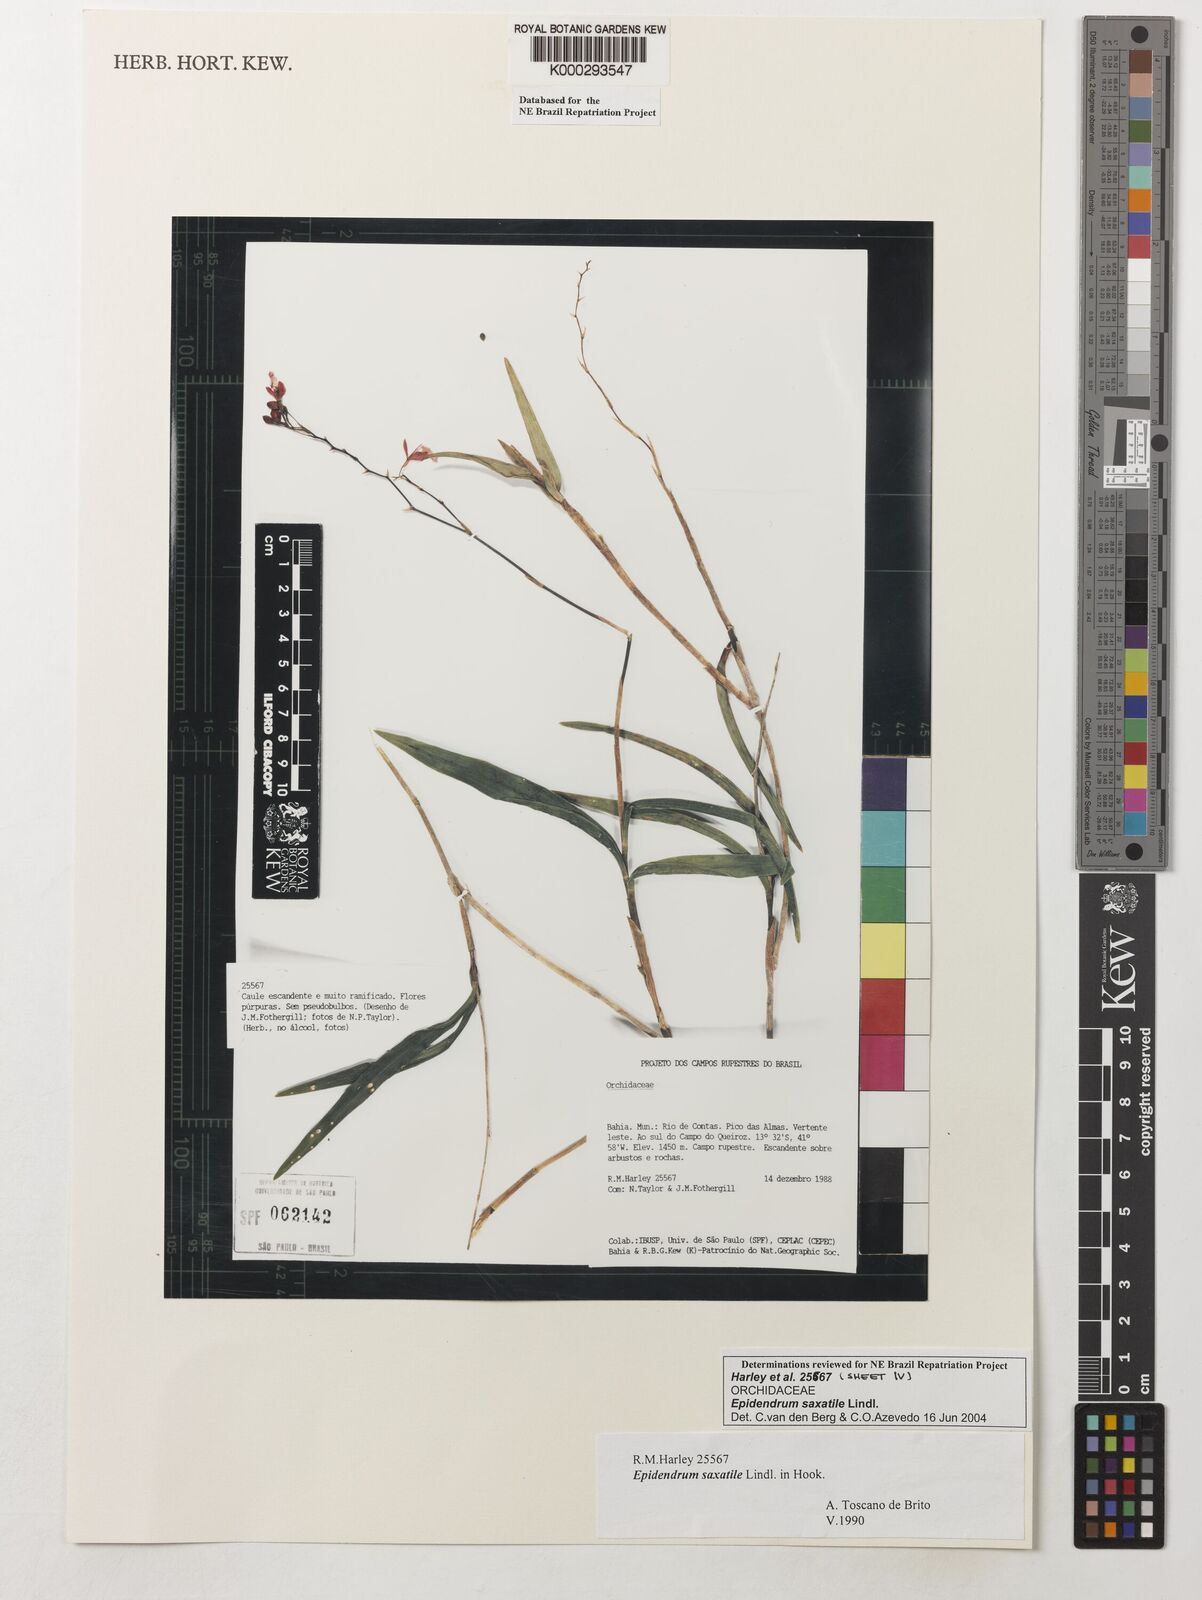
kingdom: Plantae
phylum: Tracheophyta
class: Liliopsida
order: Asparagales
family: Orchidaceae
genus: Epidendrum
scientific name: Epidendrum saxatile
